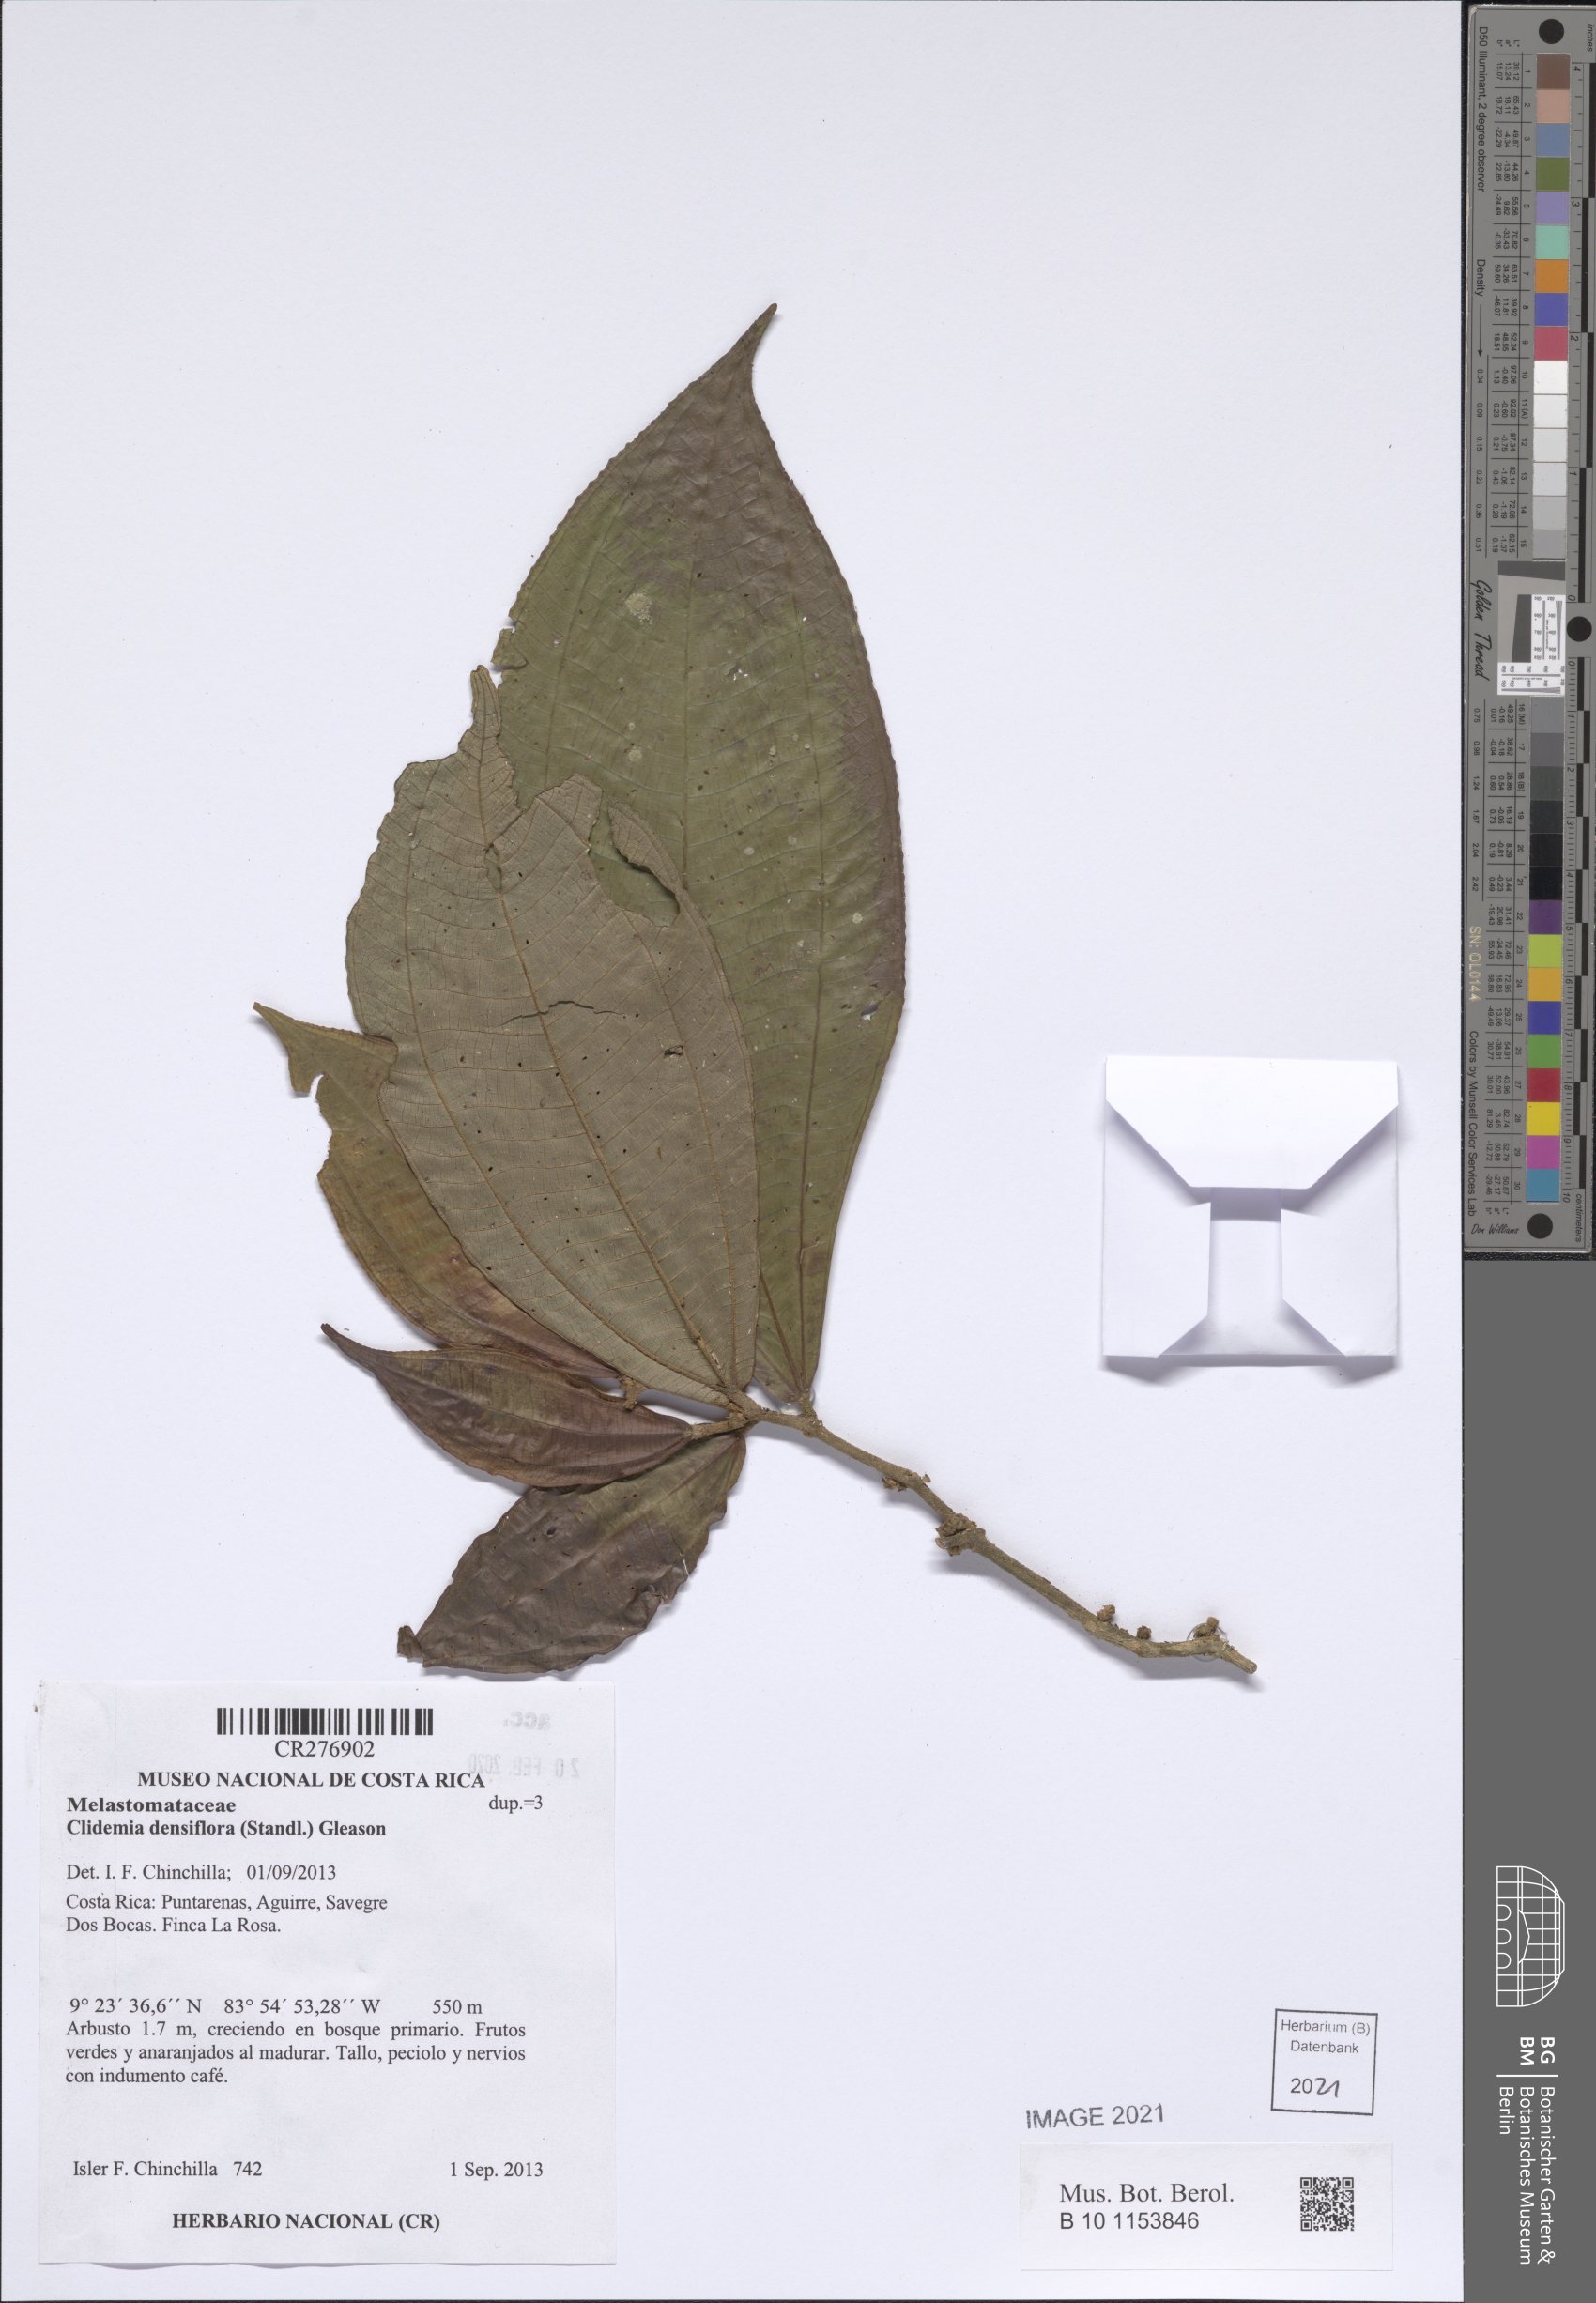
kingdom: Plantae
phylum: Tracheophyta
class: Magnoliopsida
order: Myrtales
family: Melastomataceae
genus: Miconia
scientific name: Miconia approximata
